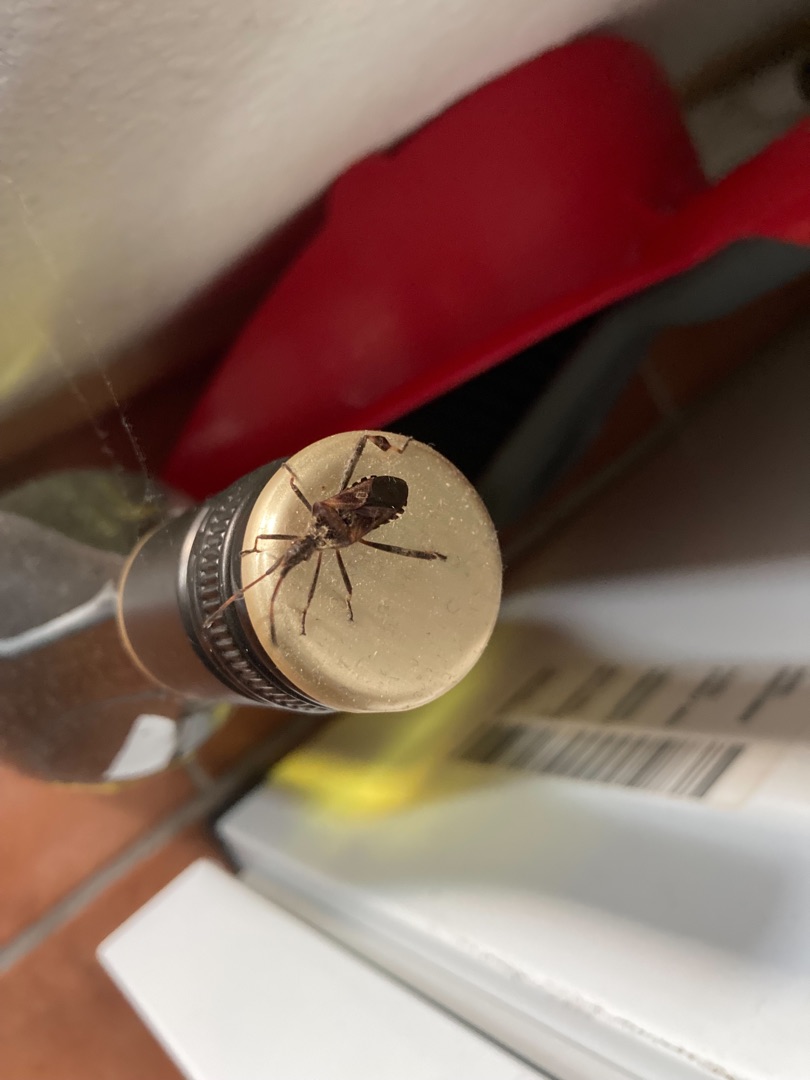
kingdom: Animalia
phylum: Arthropoda
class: Insecta
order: Hemiptera
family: Coreidae
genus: Leptoglossus
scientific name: Leptoglossus occidentalis
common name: Amerikansk fyrretæge
